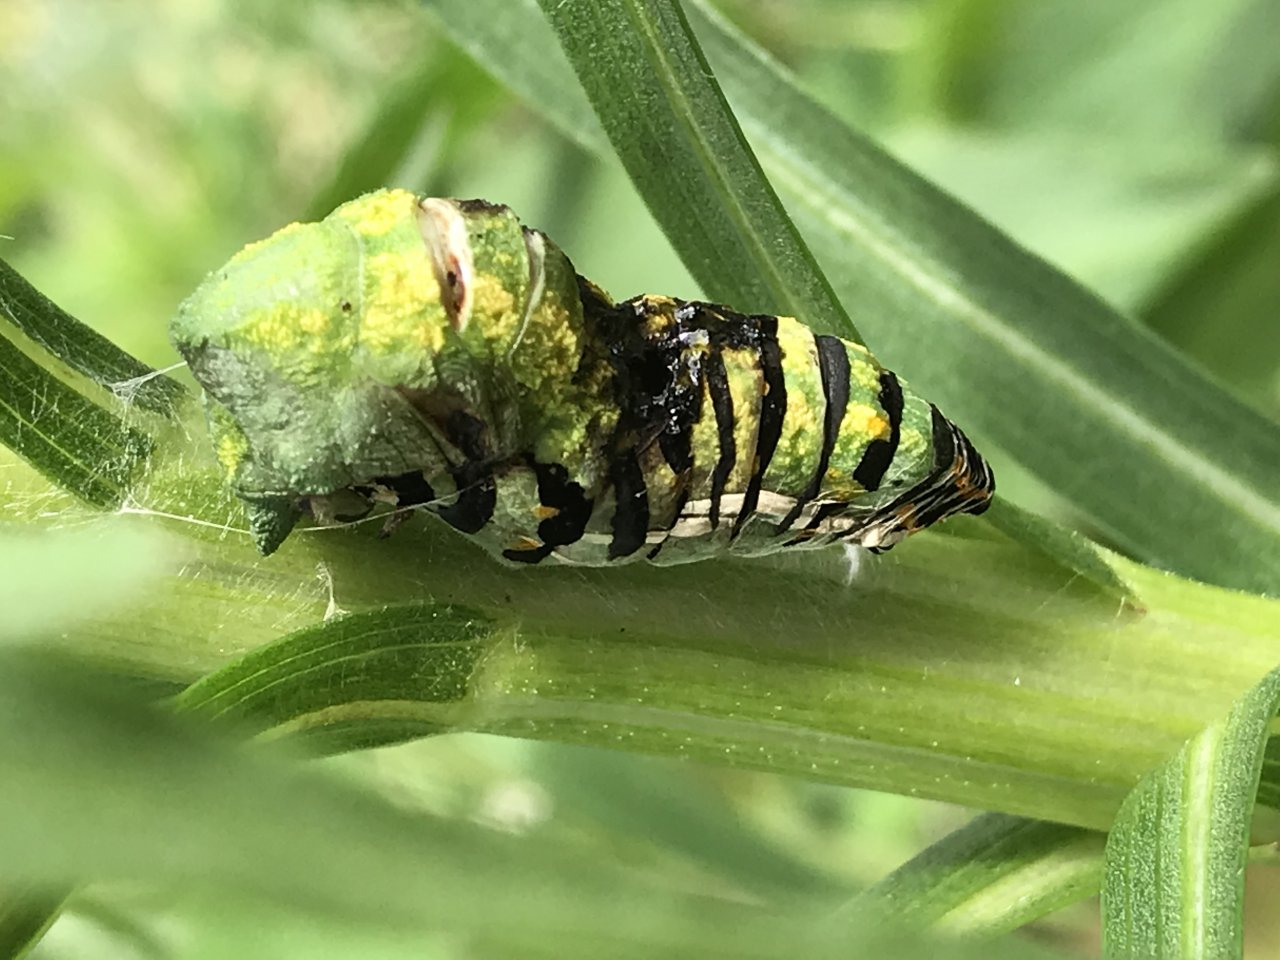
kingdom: Animalia
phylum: Arthropoda
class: Insecta
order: Lepidoptera
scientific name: Lepidoptera
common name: Butterflies
